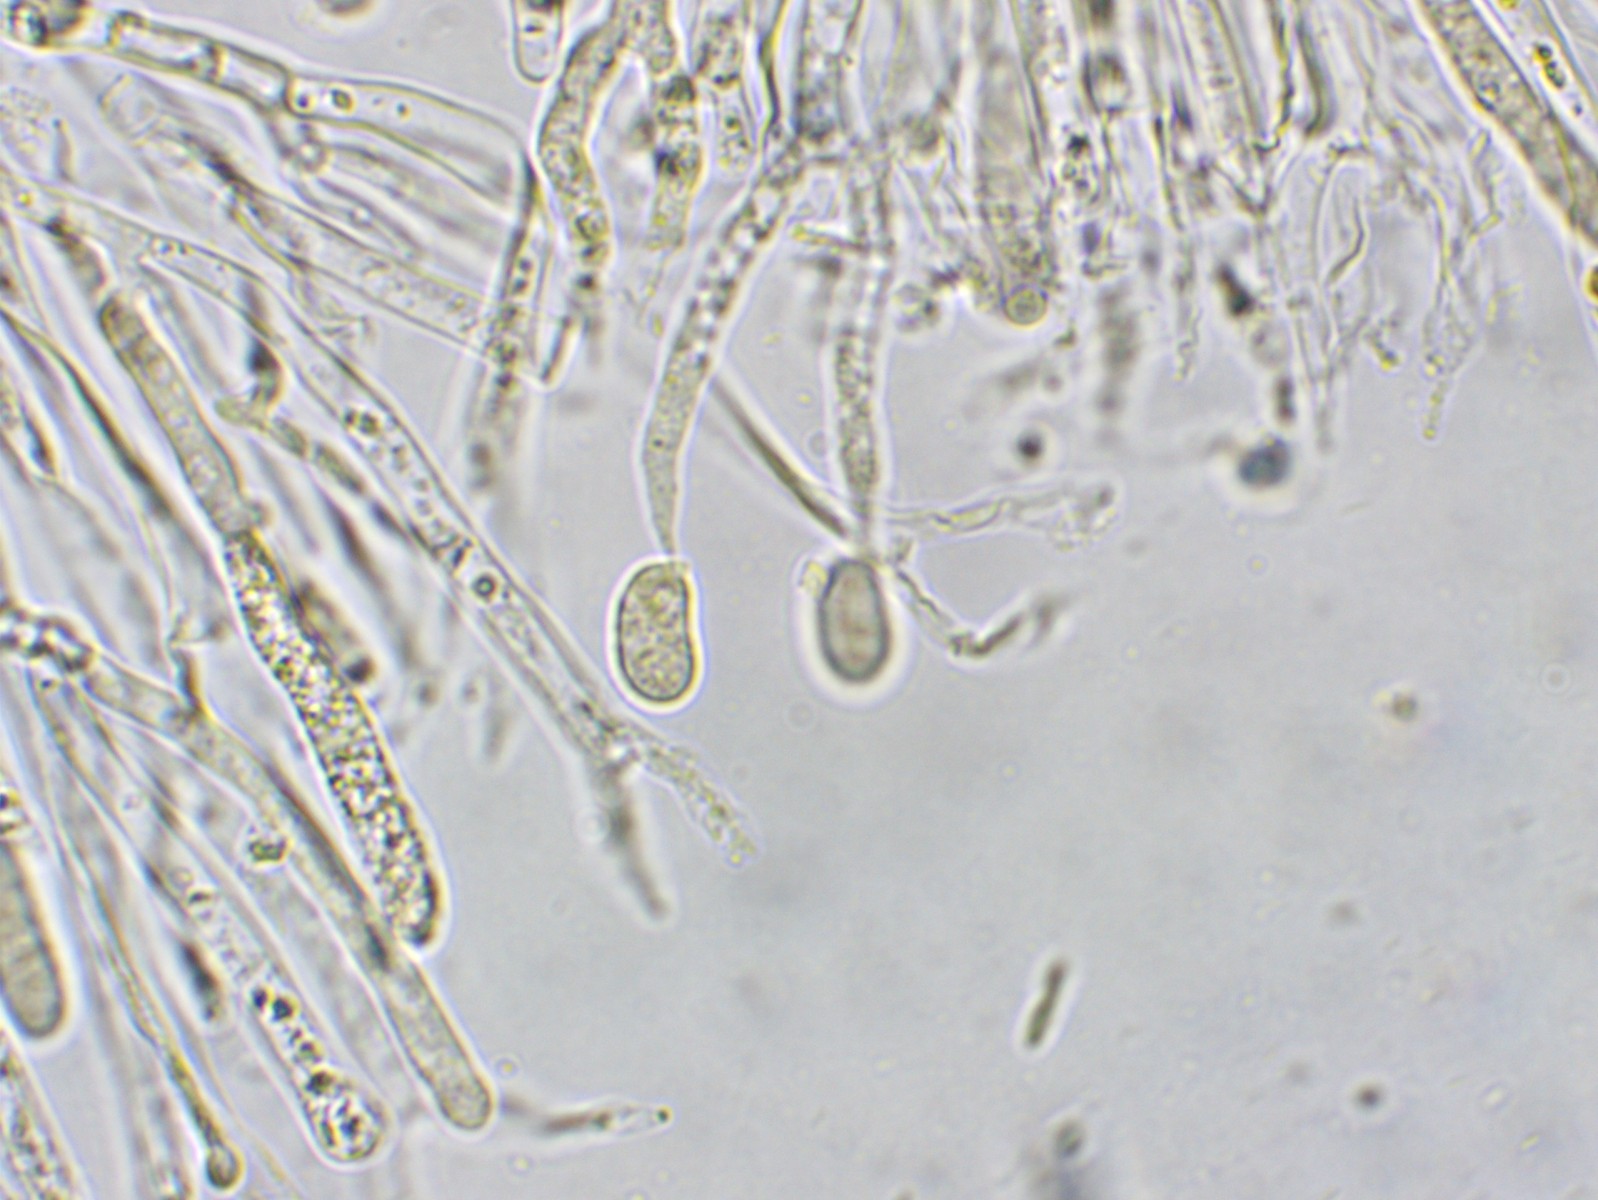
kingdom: Fungi
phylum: Basidiomycota
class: Dacrymycetes
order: Dacrymycetales
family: Dacrymycetaceae
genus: Dacrymyces
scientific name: Dacrymyces
